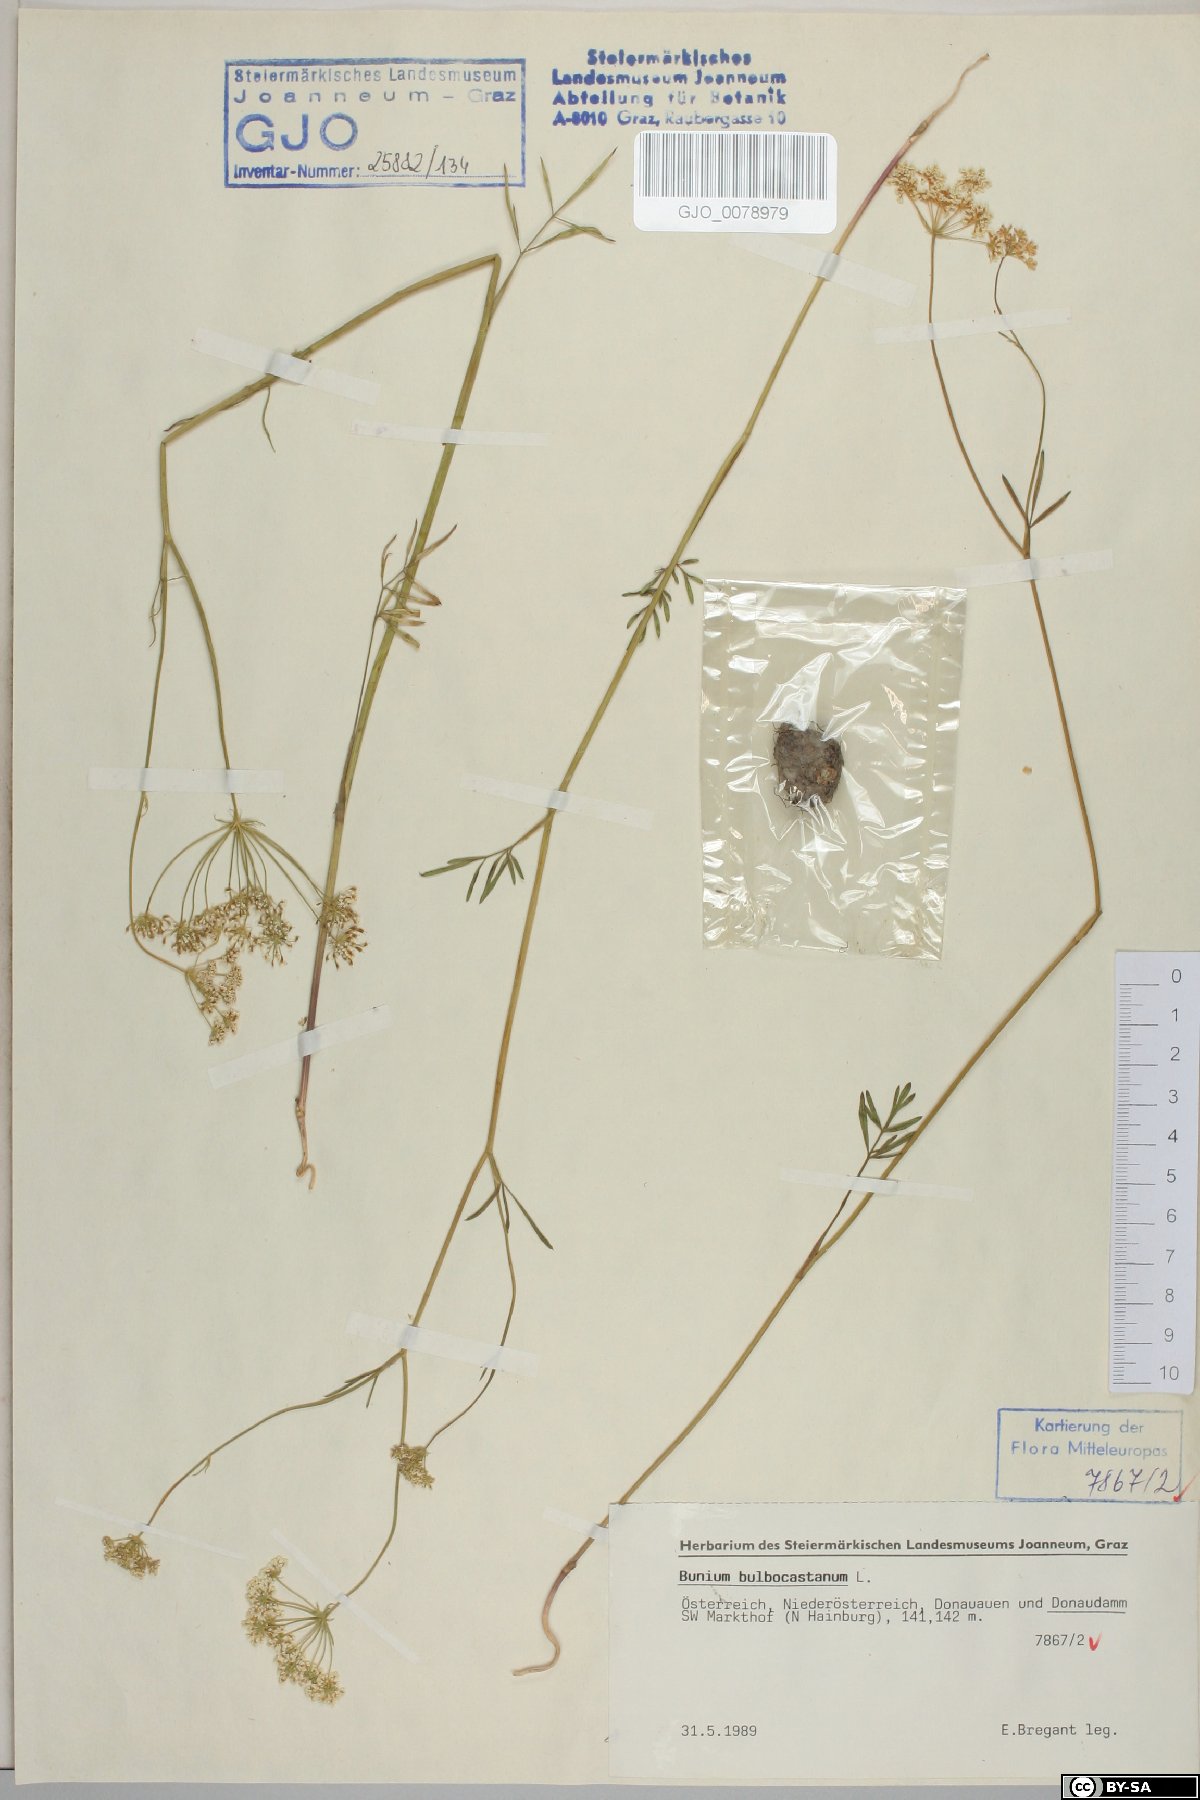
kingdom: Plantae
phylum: Tracheophyta
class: Magnoliopsida
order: Apiales
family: Apiaceae
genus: Bunium
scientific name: Bunium bulbocastanum
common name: Great pignut
